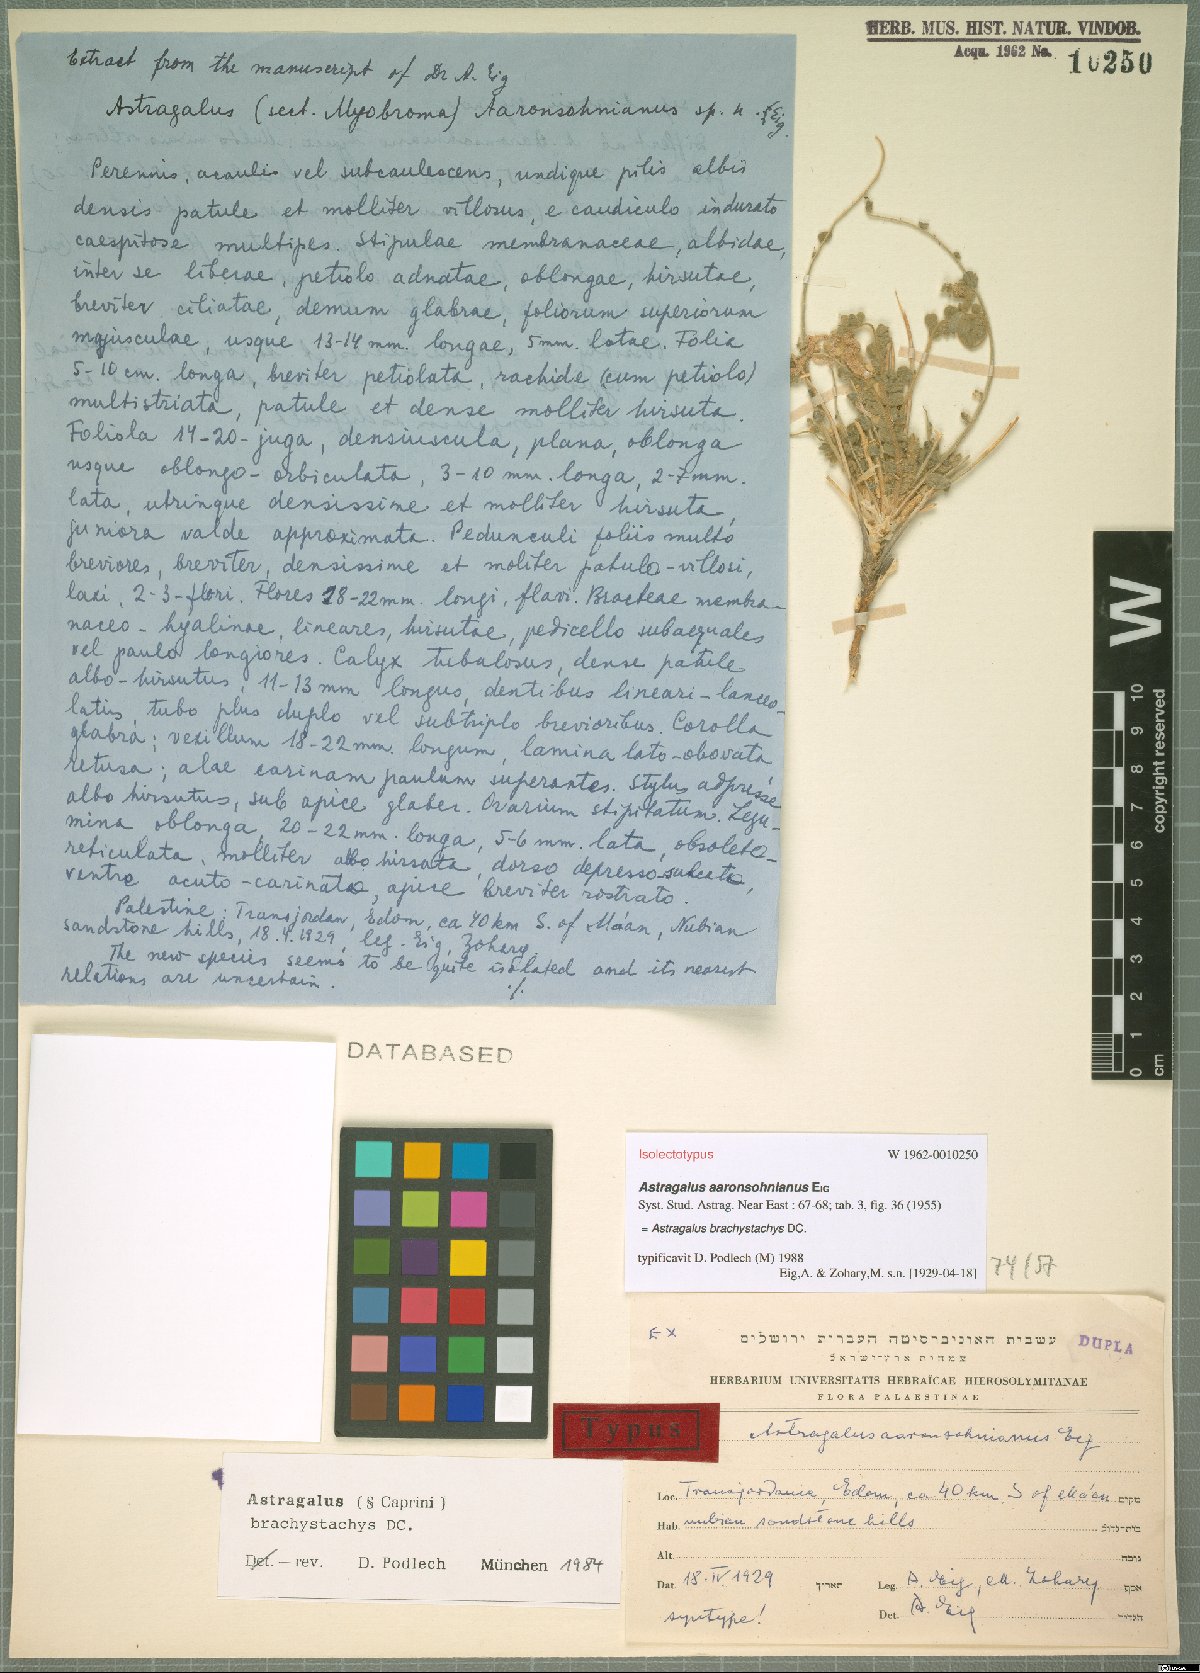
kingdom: Plantae
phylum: Tracheophyta
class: Magnoliopsida
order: Fabales
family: Fabaceae
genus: Astragalus
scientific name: Astragalus brachystachys
